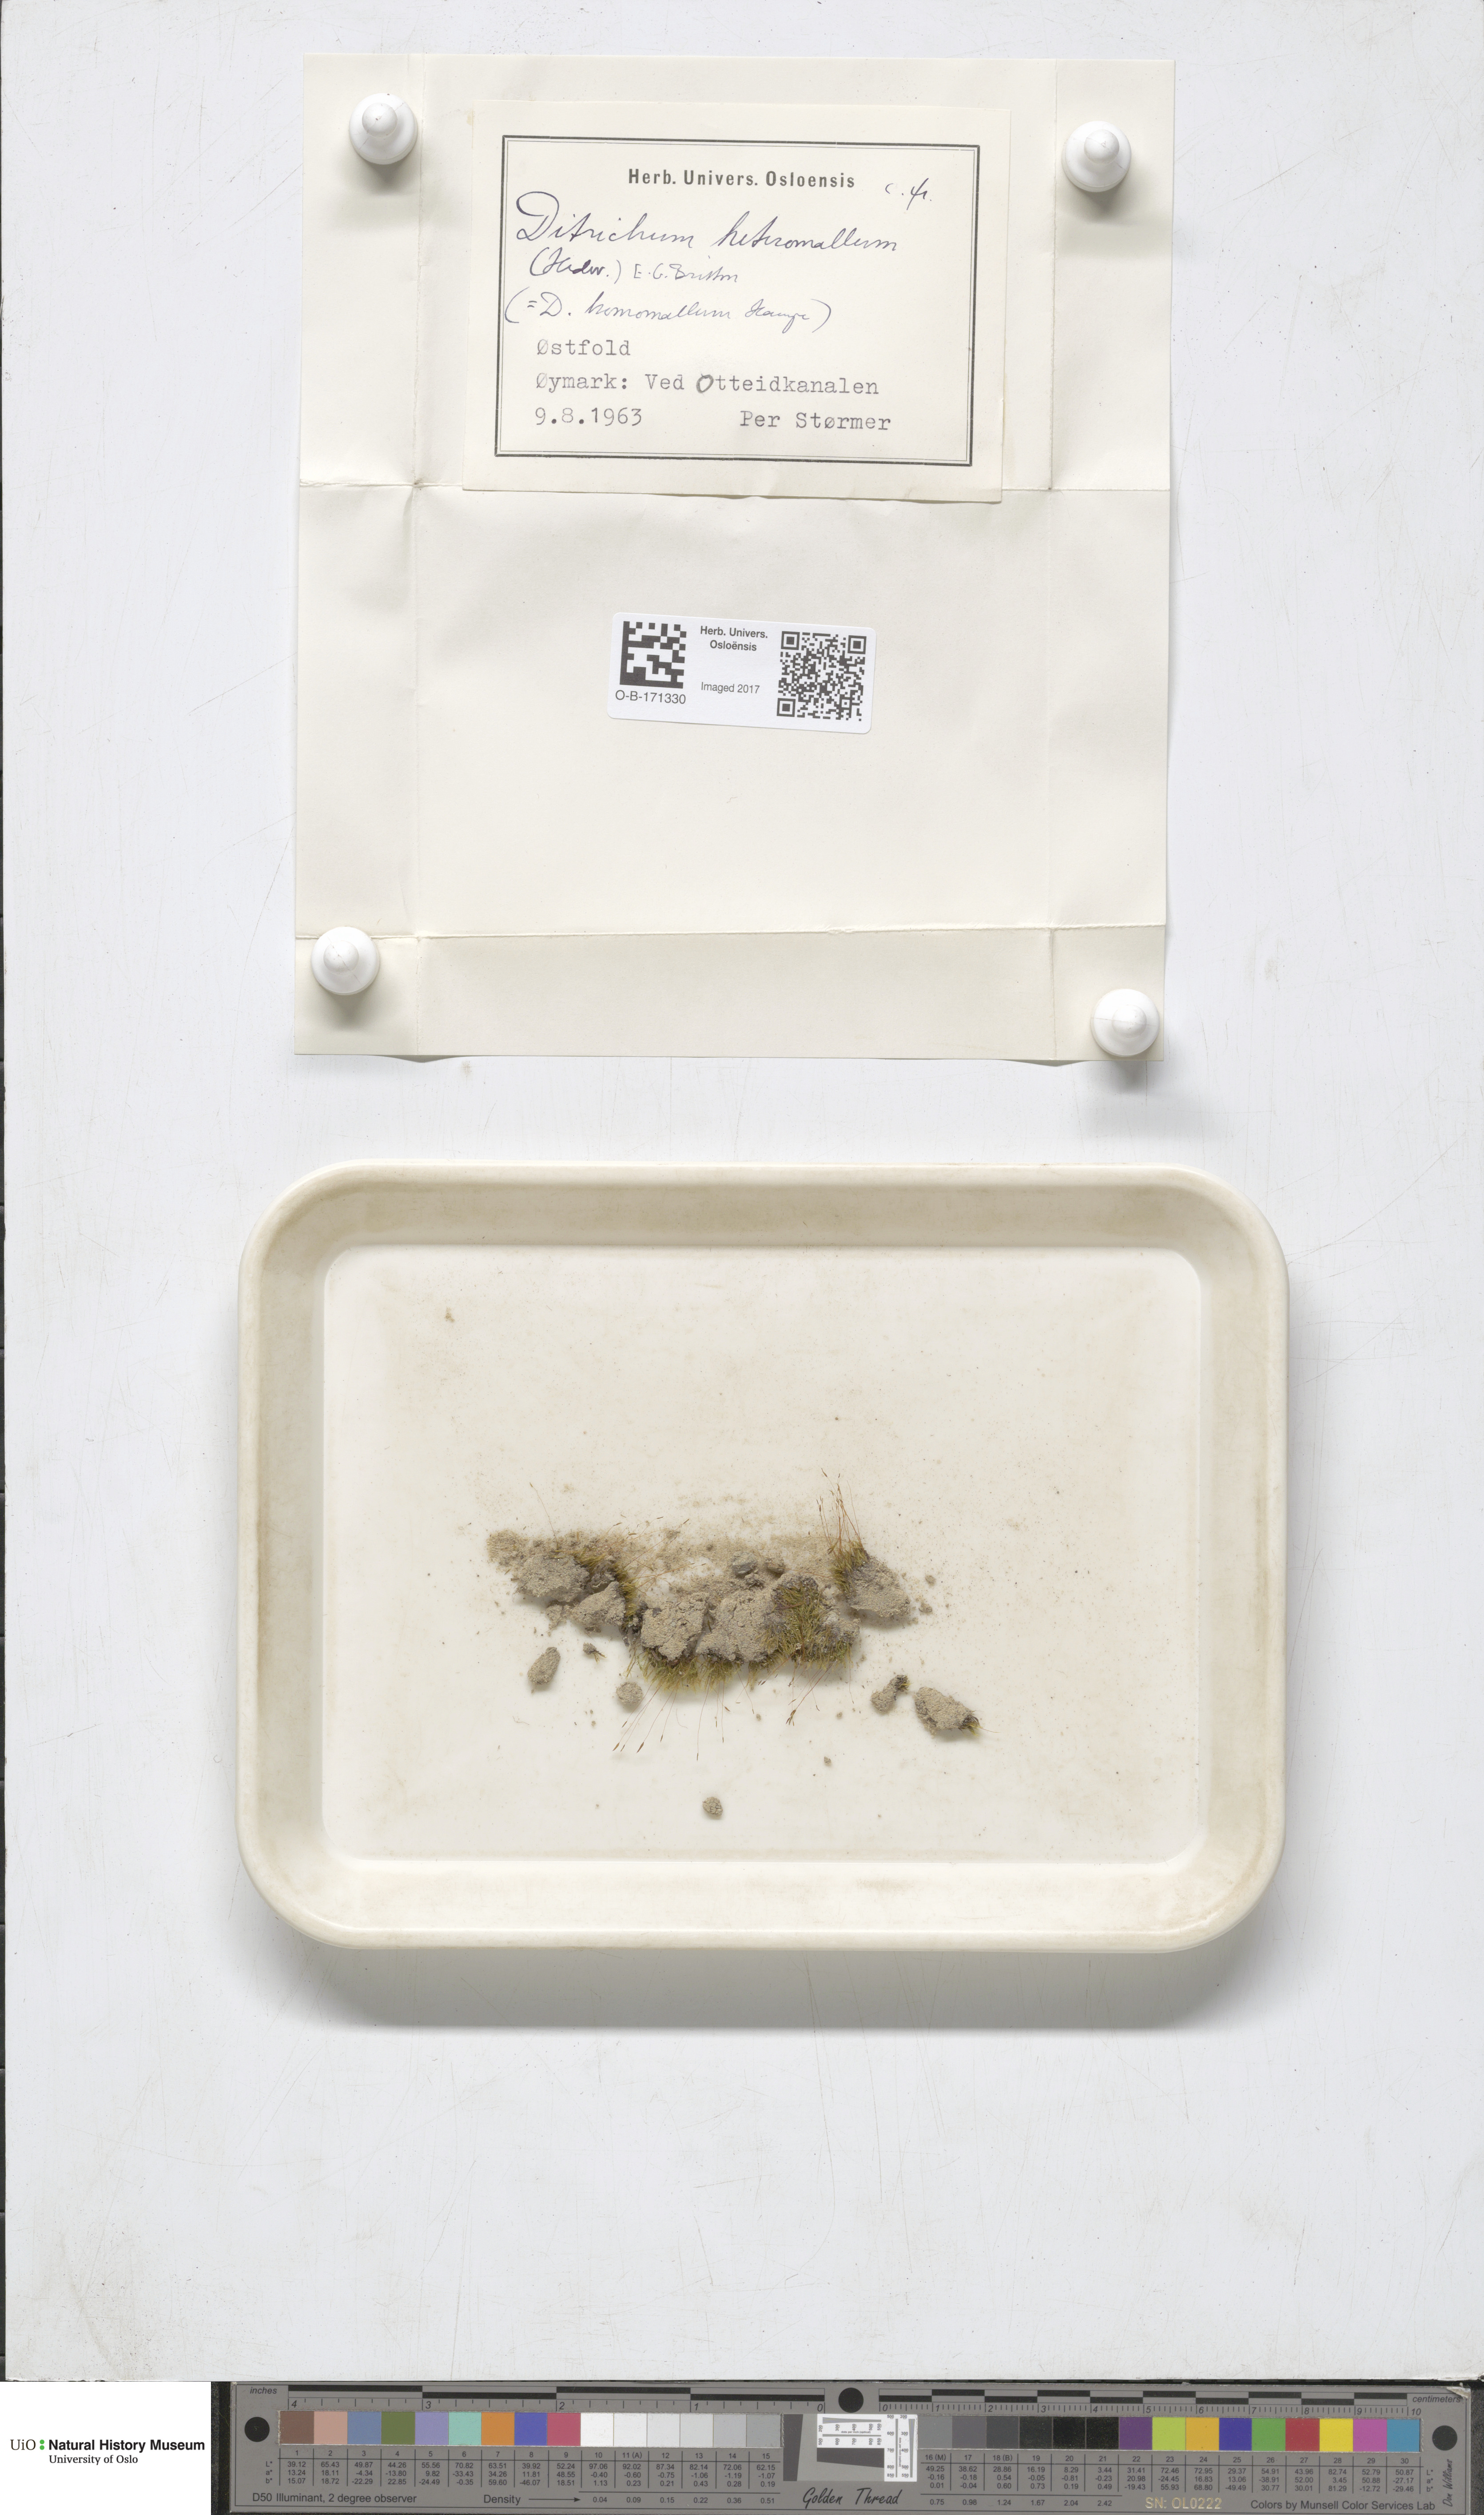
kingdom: Plantae
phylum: Bryophyta
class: Bryopsida
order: Dicranales
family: Ditrichaceae
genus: Ditrichum
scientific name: Ditrichum heteromallum
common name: Curve-leaved ditrichum
